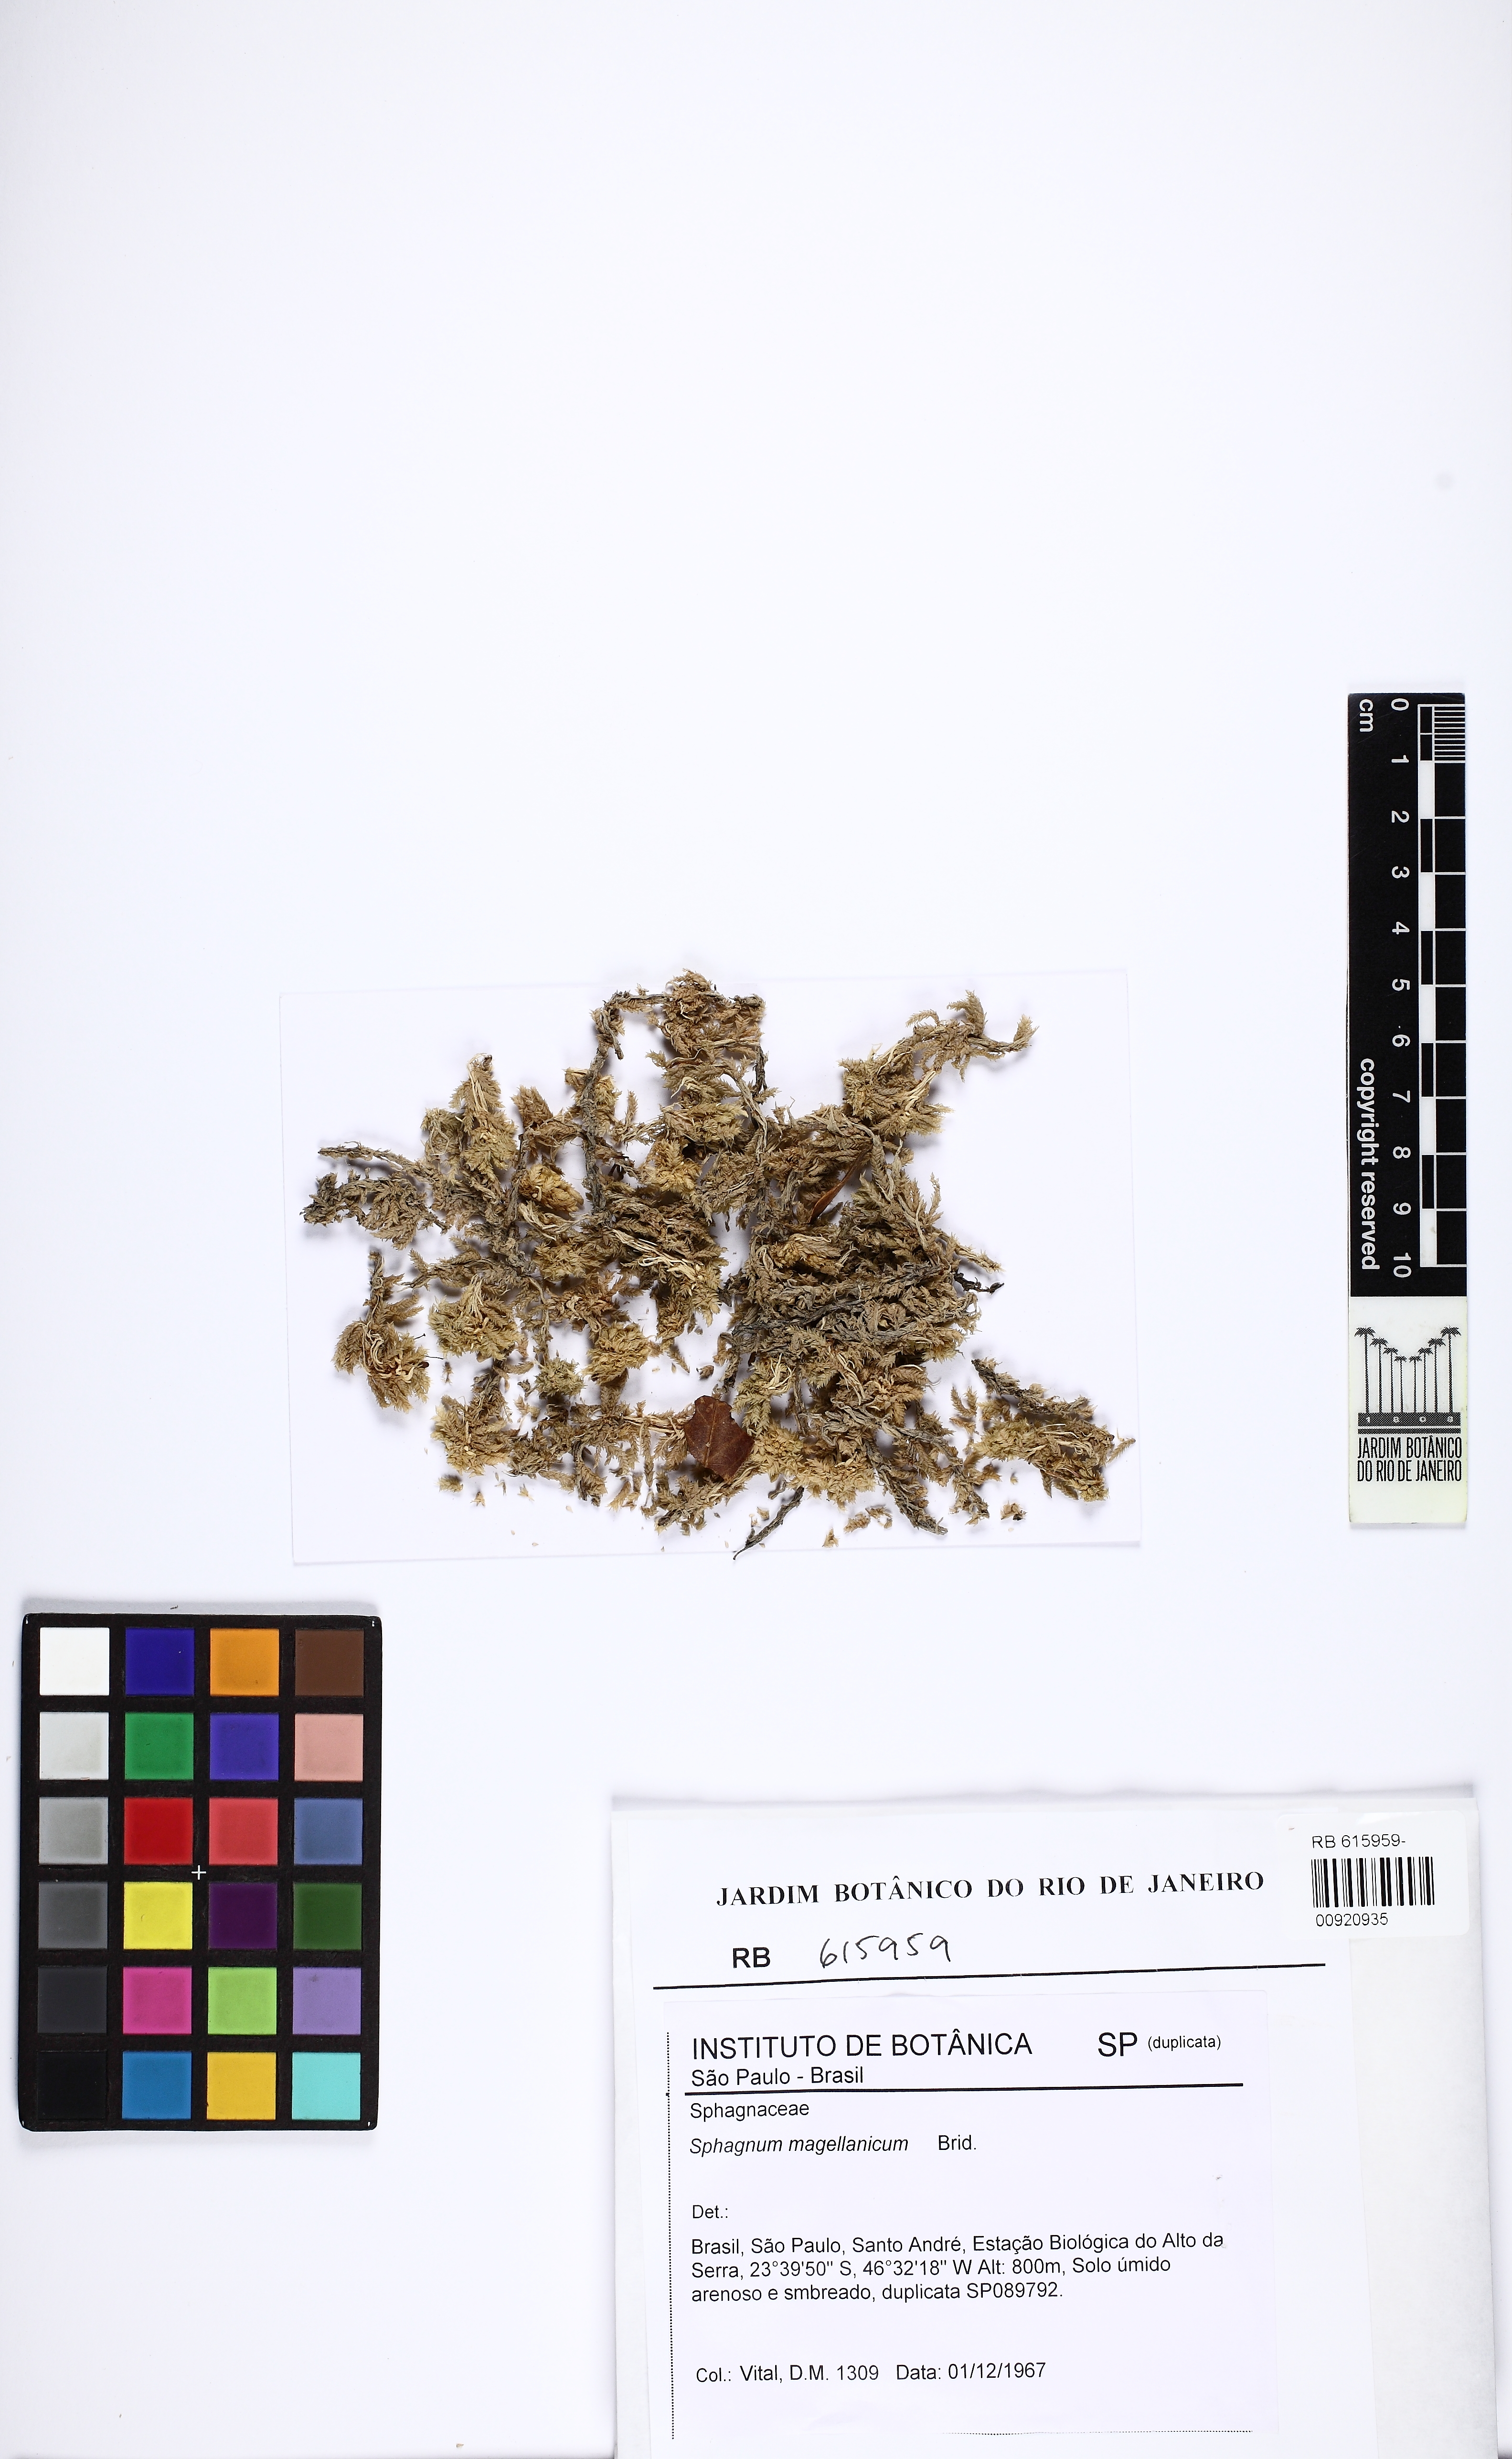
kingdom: Plantae
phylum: Bryophyta
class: Sphagnopsida
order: Sphagnales
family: Sphagnaceae
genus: Sphagnum
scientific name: Sphagnum magellanicum
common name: Magellan's peat moss
